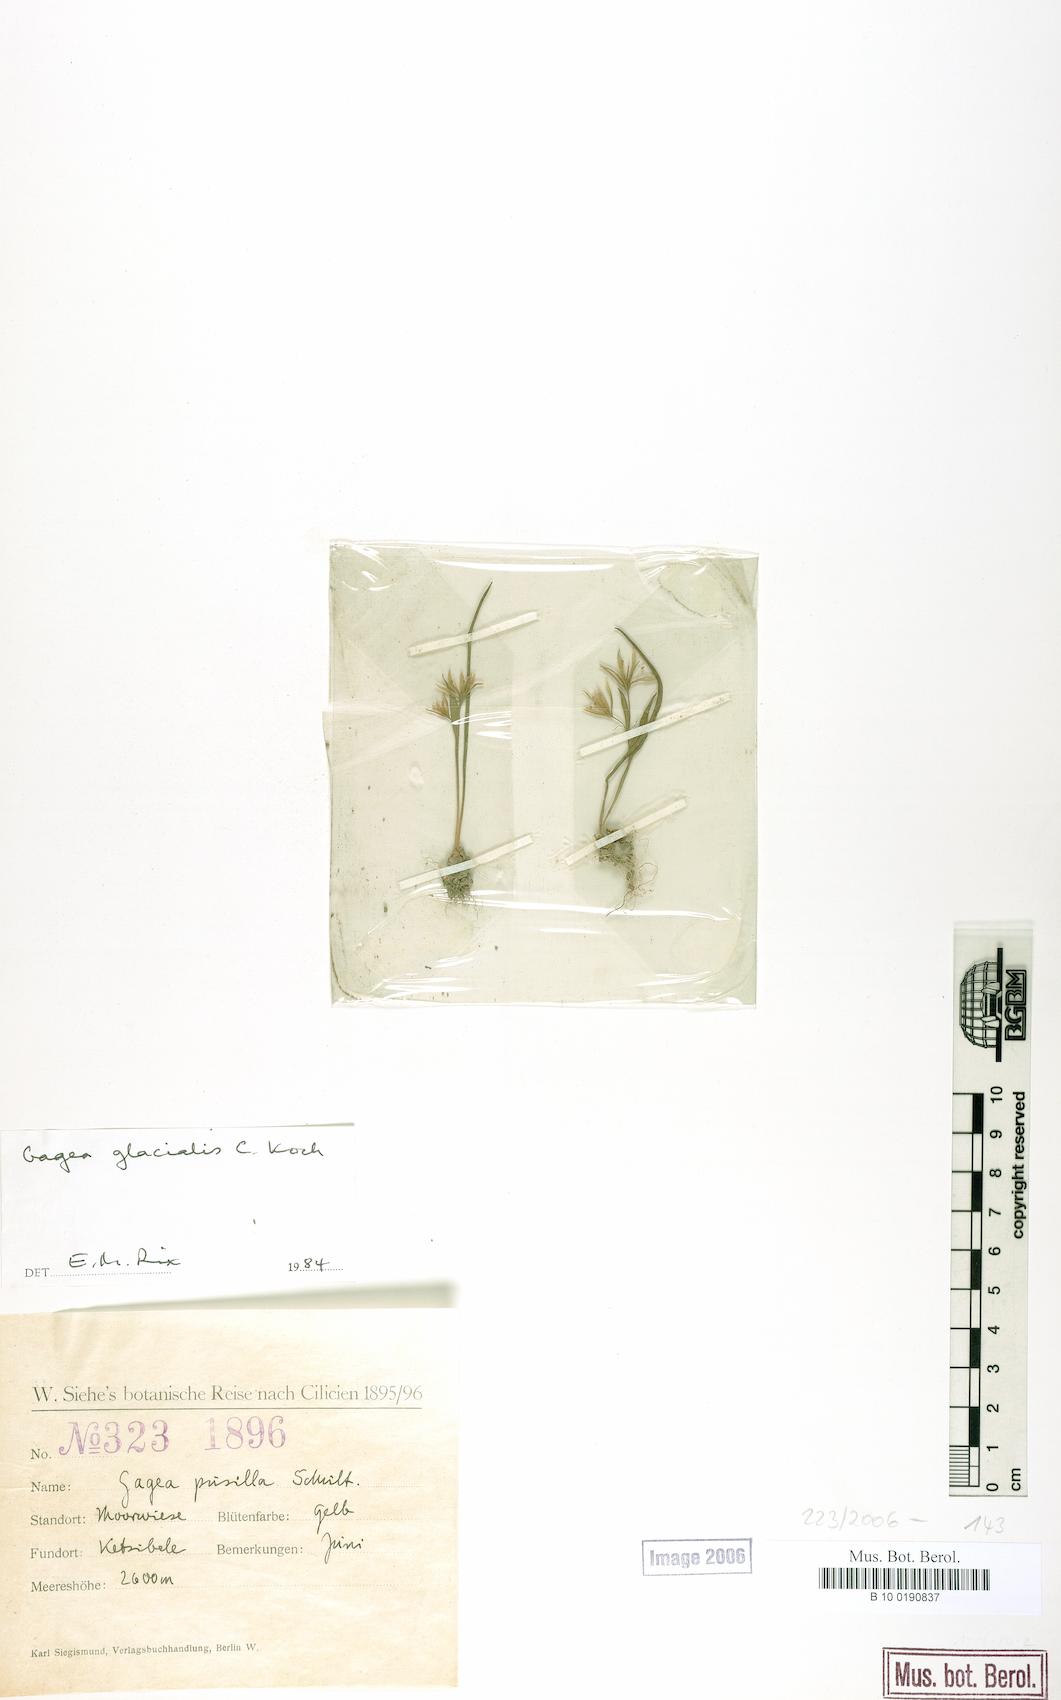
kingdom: Plantae
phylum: Tracheophyta
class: Liliopsida
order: Liliales
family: Liliaceae
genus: Gagea
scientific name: Gagea glacialis
